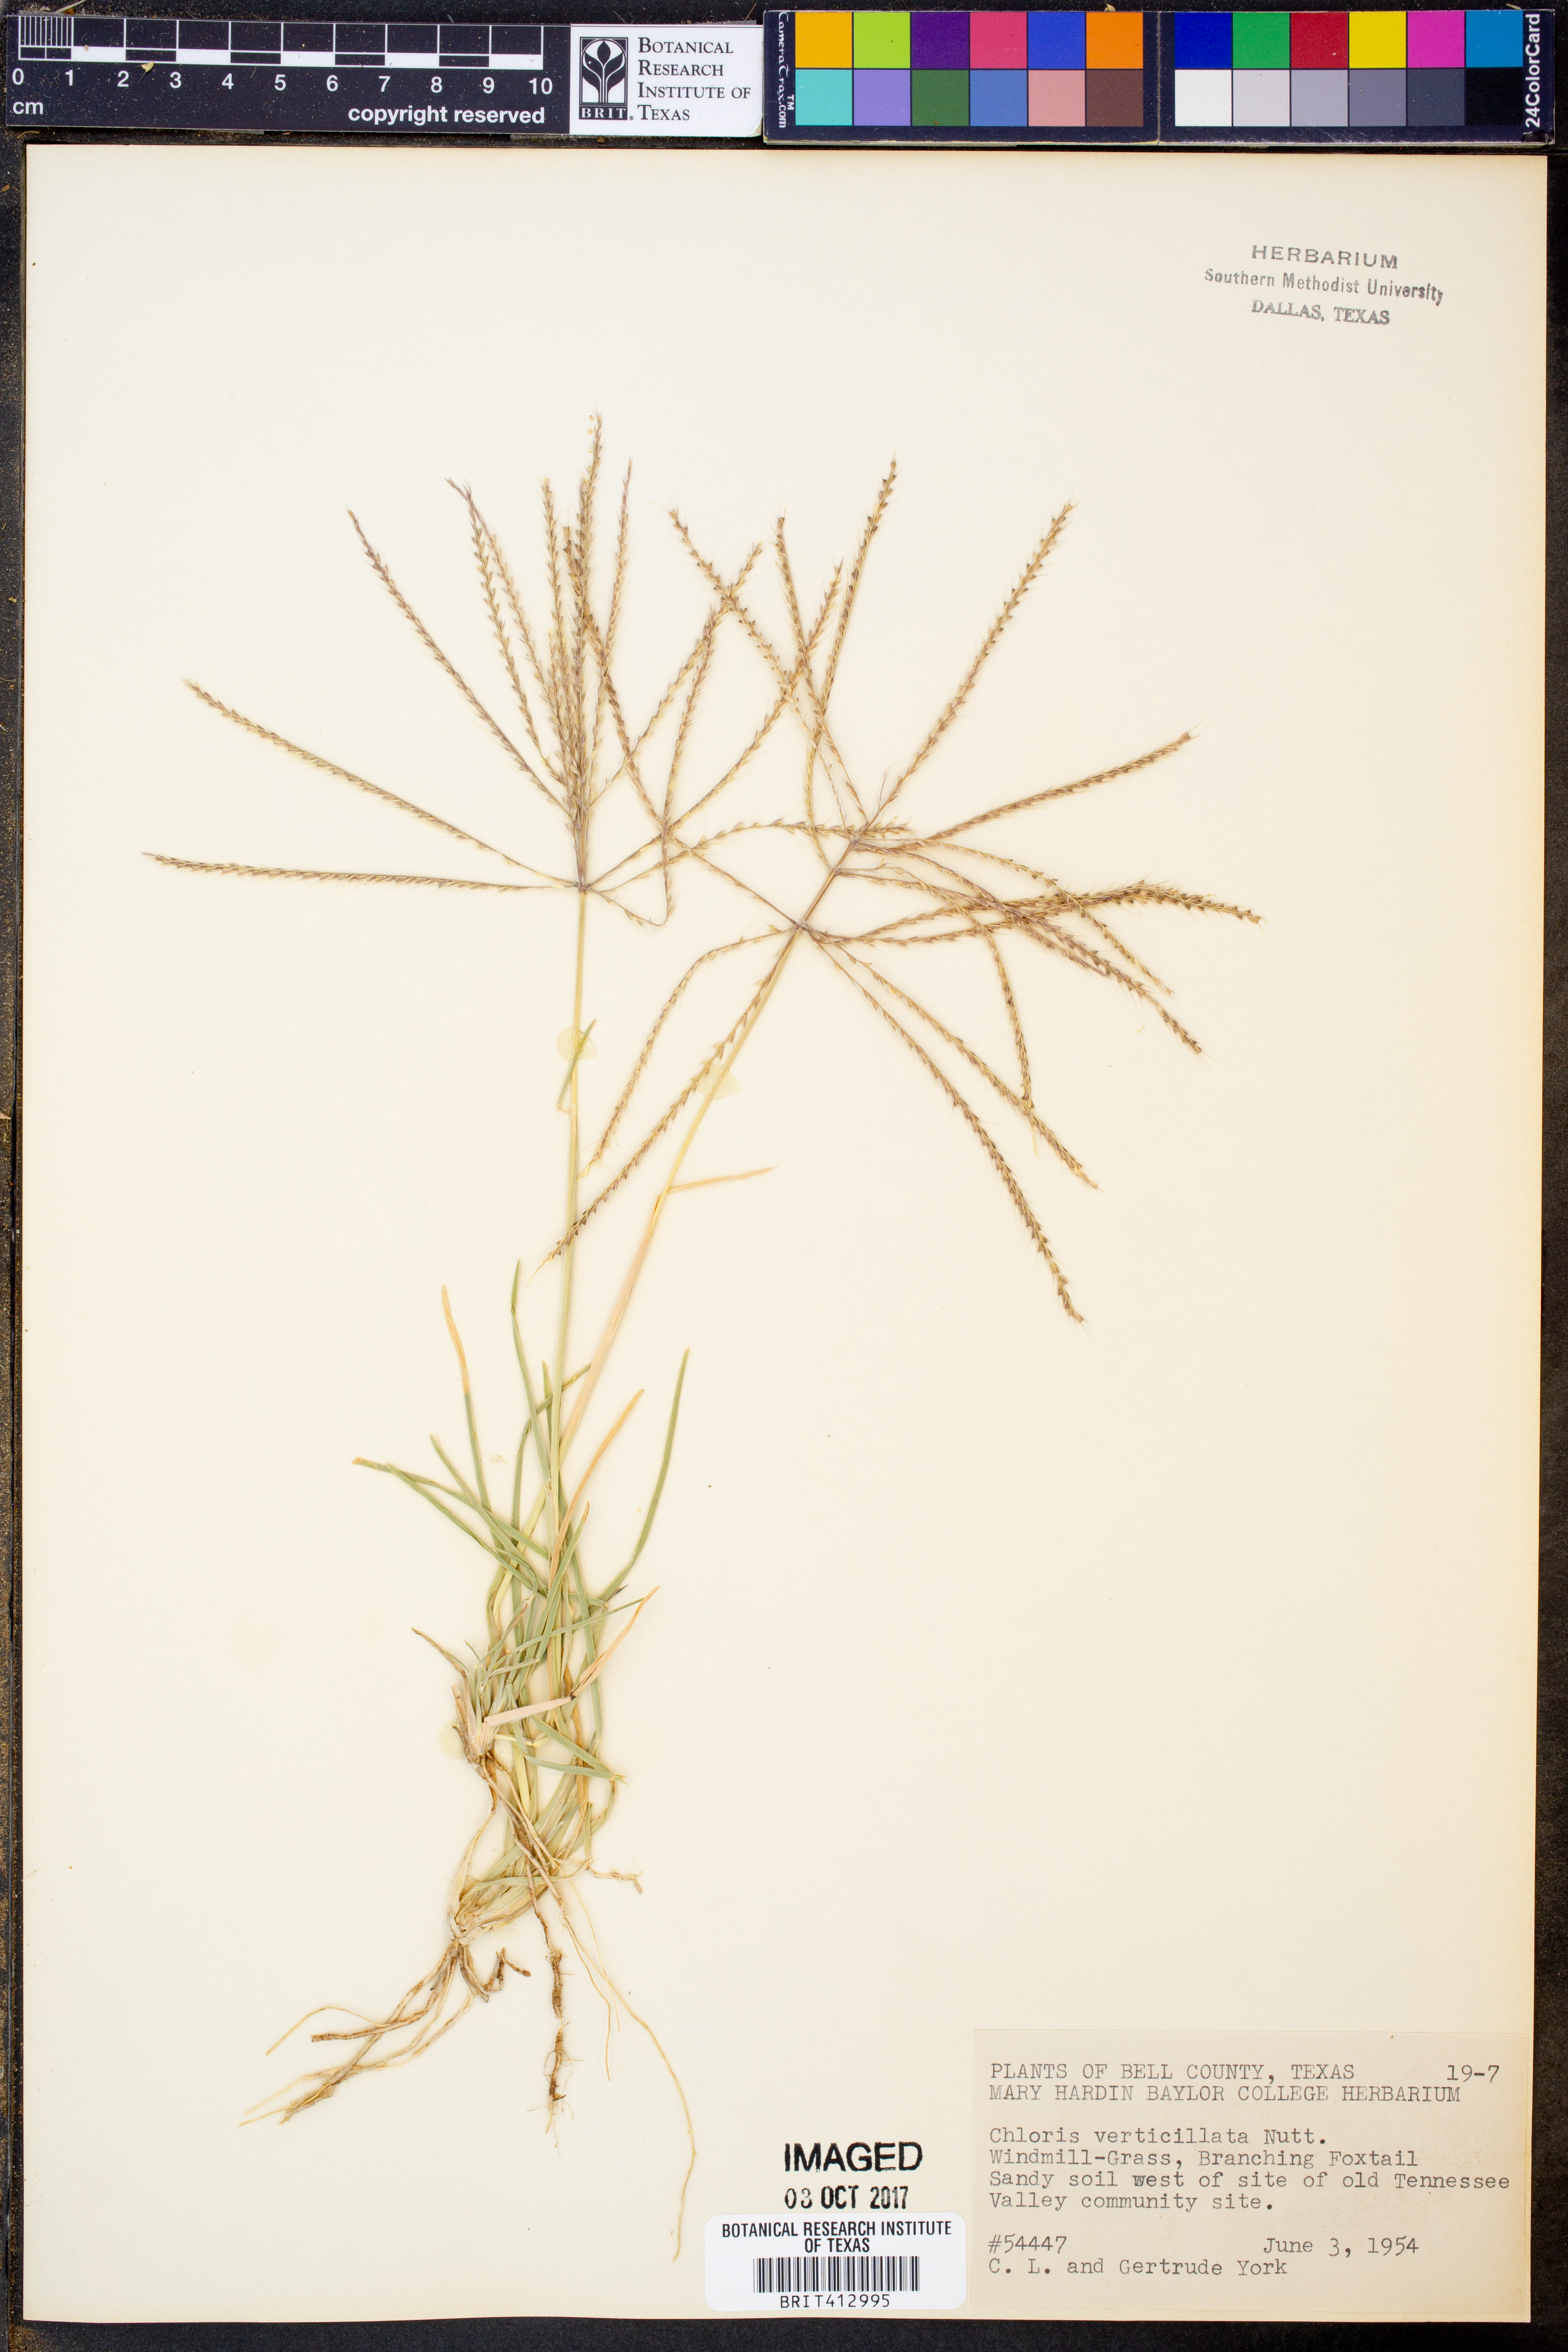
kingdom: Plantae
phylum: Tracheophyta
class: Liliopsida
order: Poales
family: Poaceae
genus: Chloris
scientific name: Chloris verticillata
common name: Tumble windmill grass
